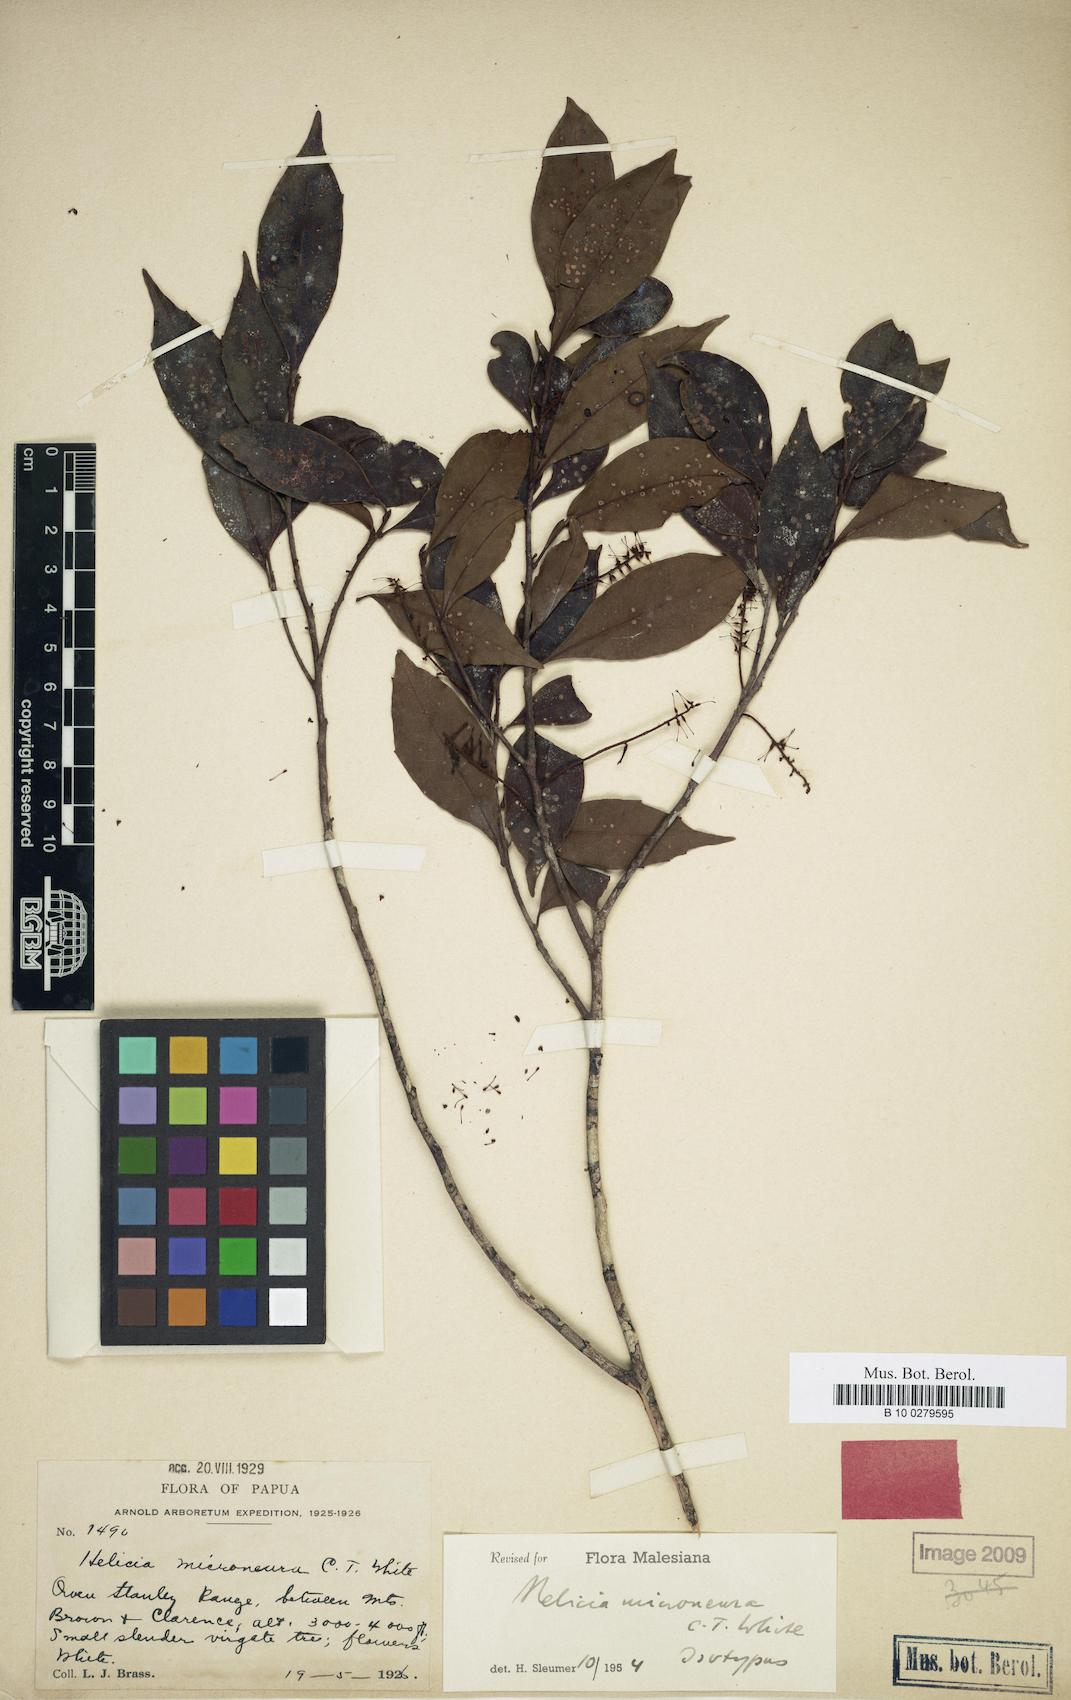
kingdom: Plantae
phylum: Tracheophyta
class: Magnoliopsida
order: Proteales
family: Proteaceae
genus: Helicia
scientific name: Helicia microneura
